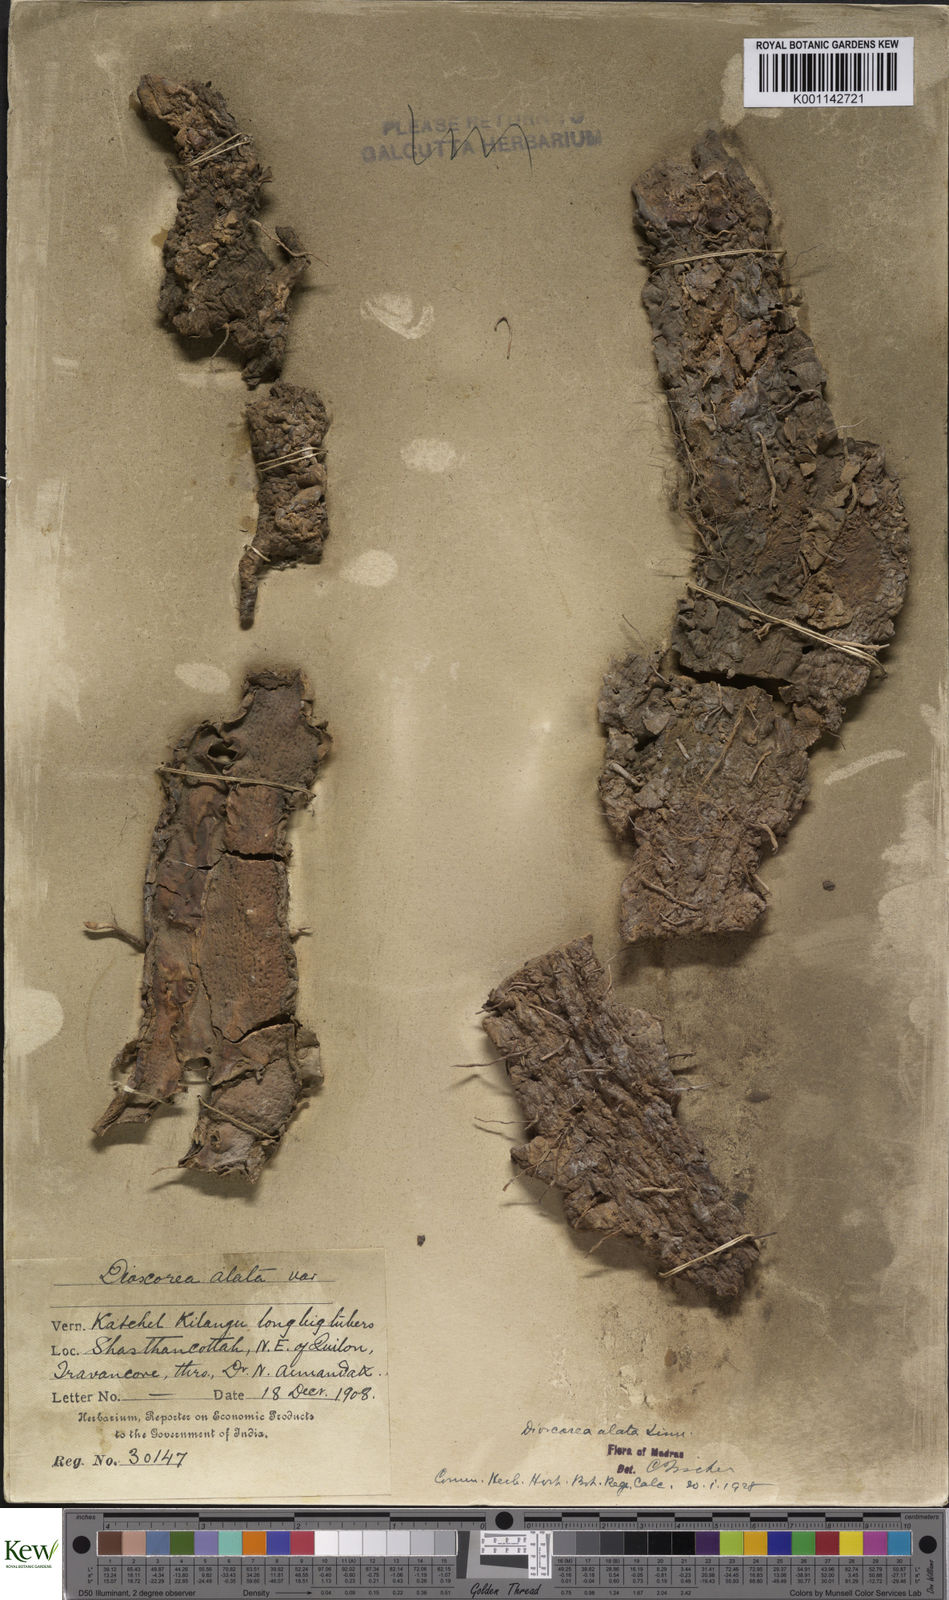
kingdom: Plantae
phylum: Tracheophyta
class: Liliopsida
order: Dioscoreales
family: Dioscoreaceae
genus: Dioscorea
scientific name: Dioscorea alata
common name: Water yam
